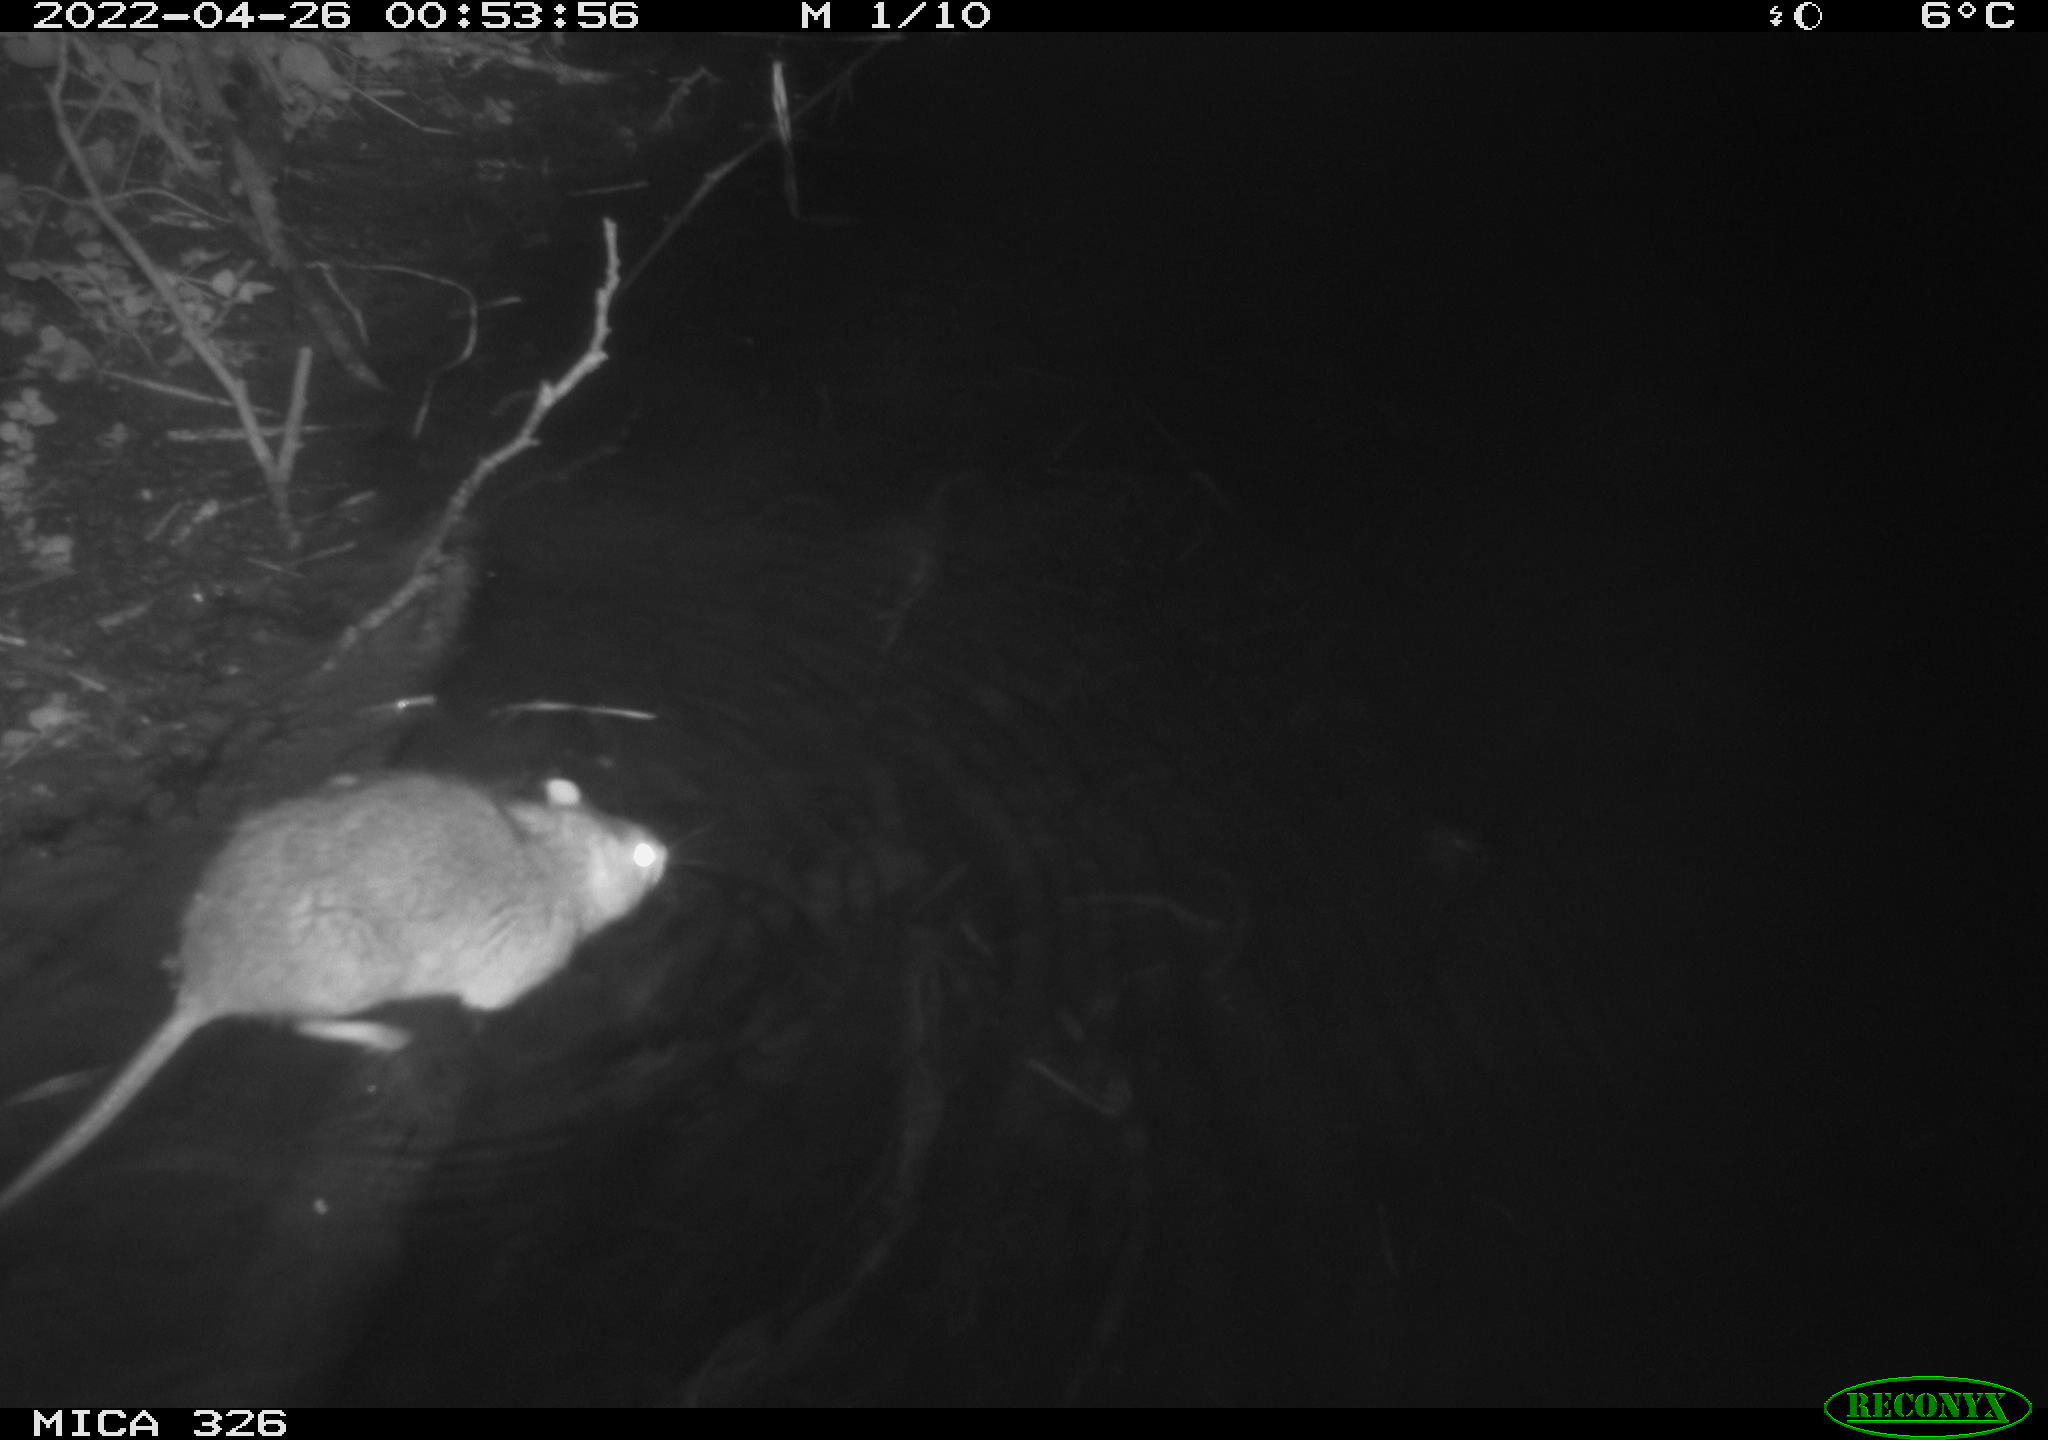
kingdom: Animalia
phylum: Chordata
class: Mammalia
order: Rodentia
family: Muridae
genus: Rattus
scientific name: Rattus norvegicus
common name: Brown rat
